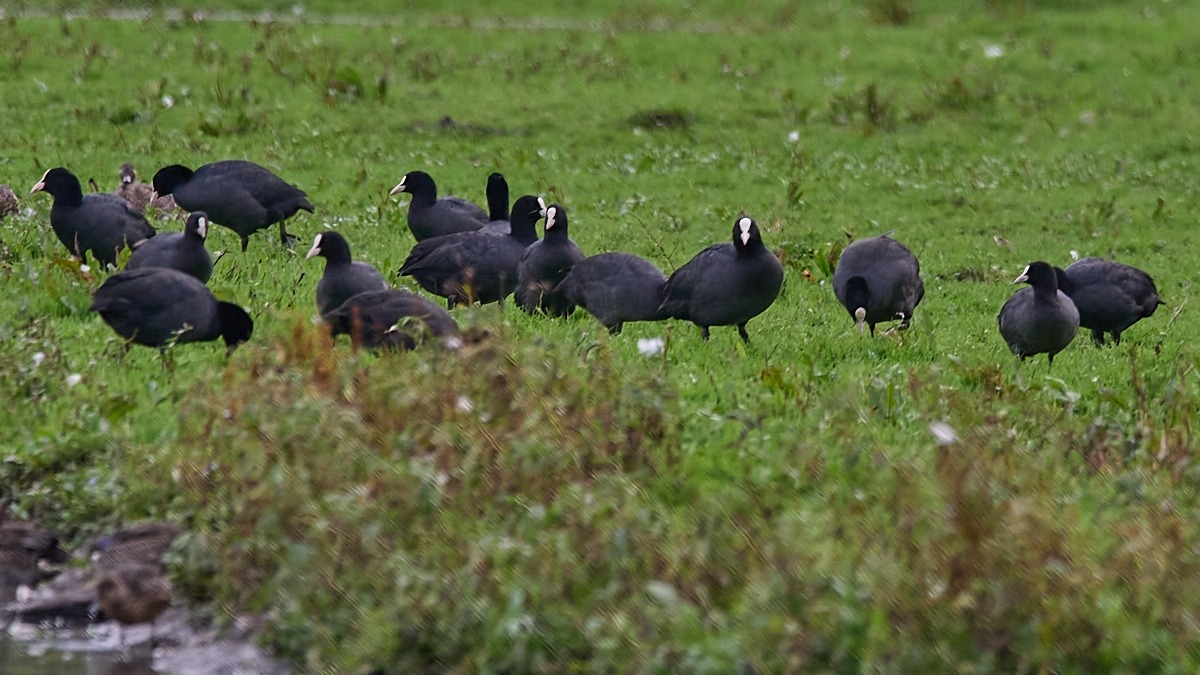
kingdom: Animalia
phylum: Chordata
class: Aves
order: Gruiformes
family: Rallidae
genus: Fulica
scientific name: Fulica atra
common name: Blishøne
